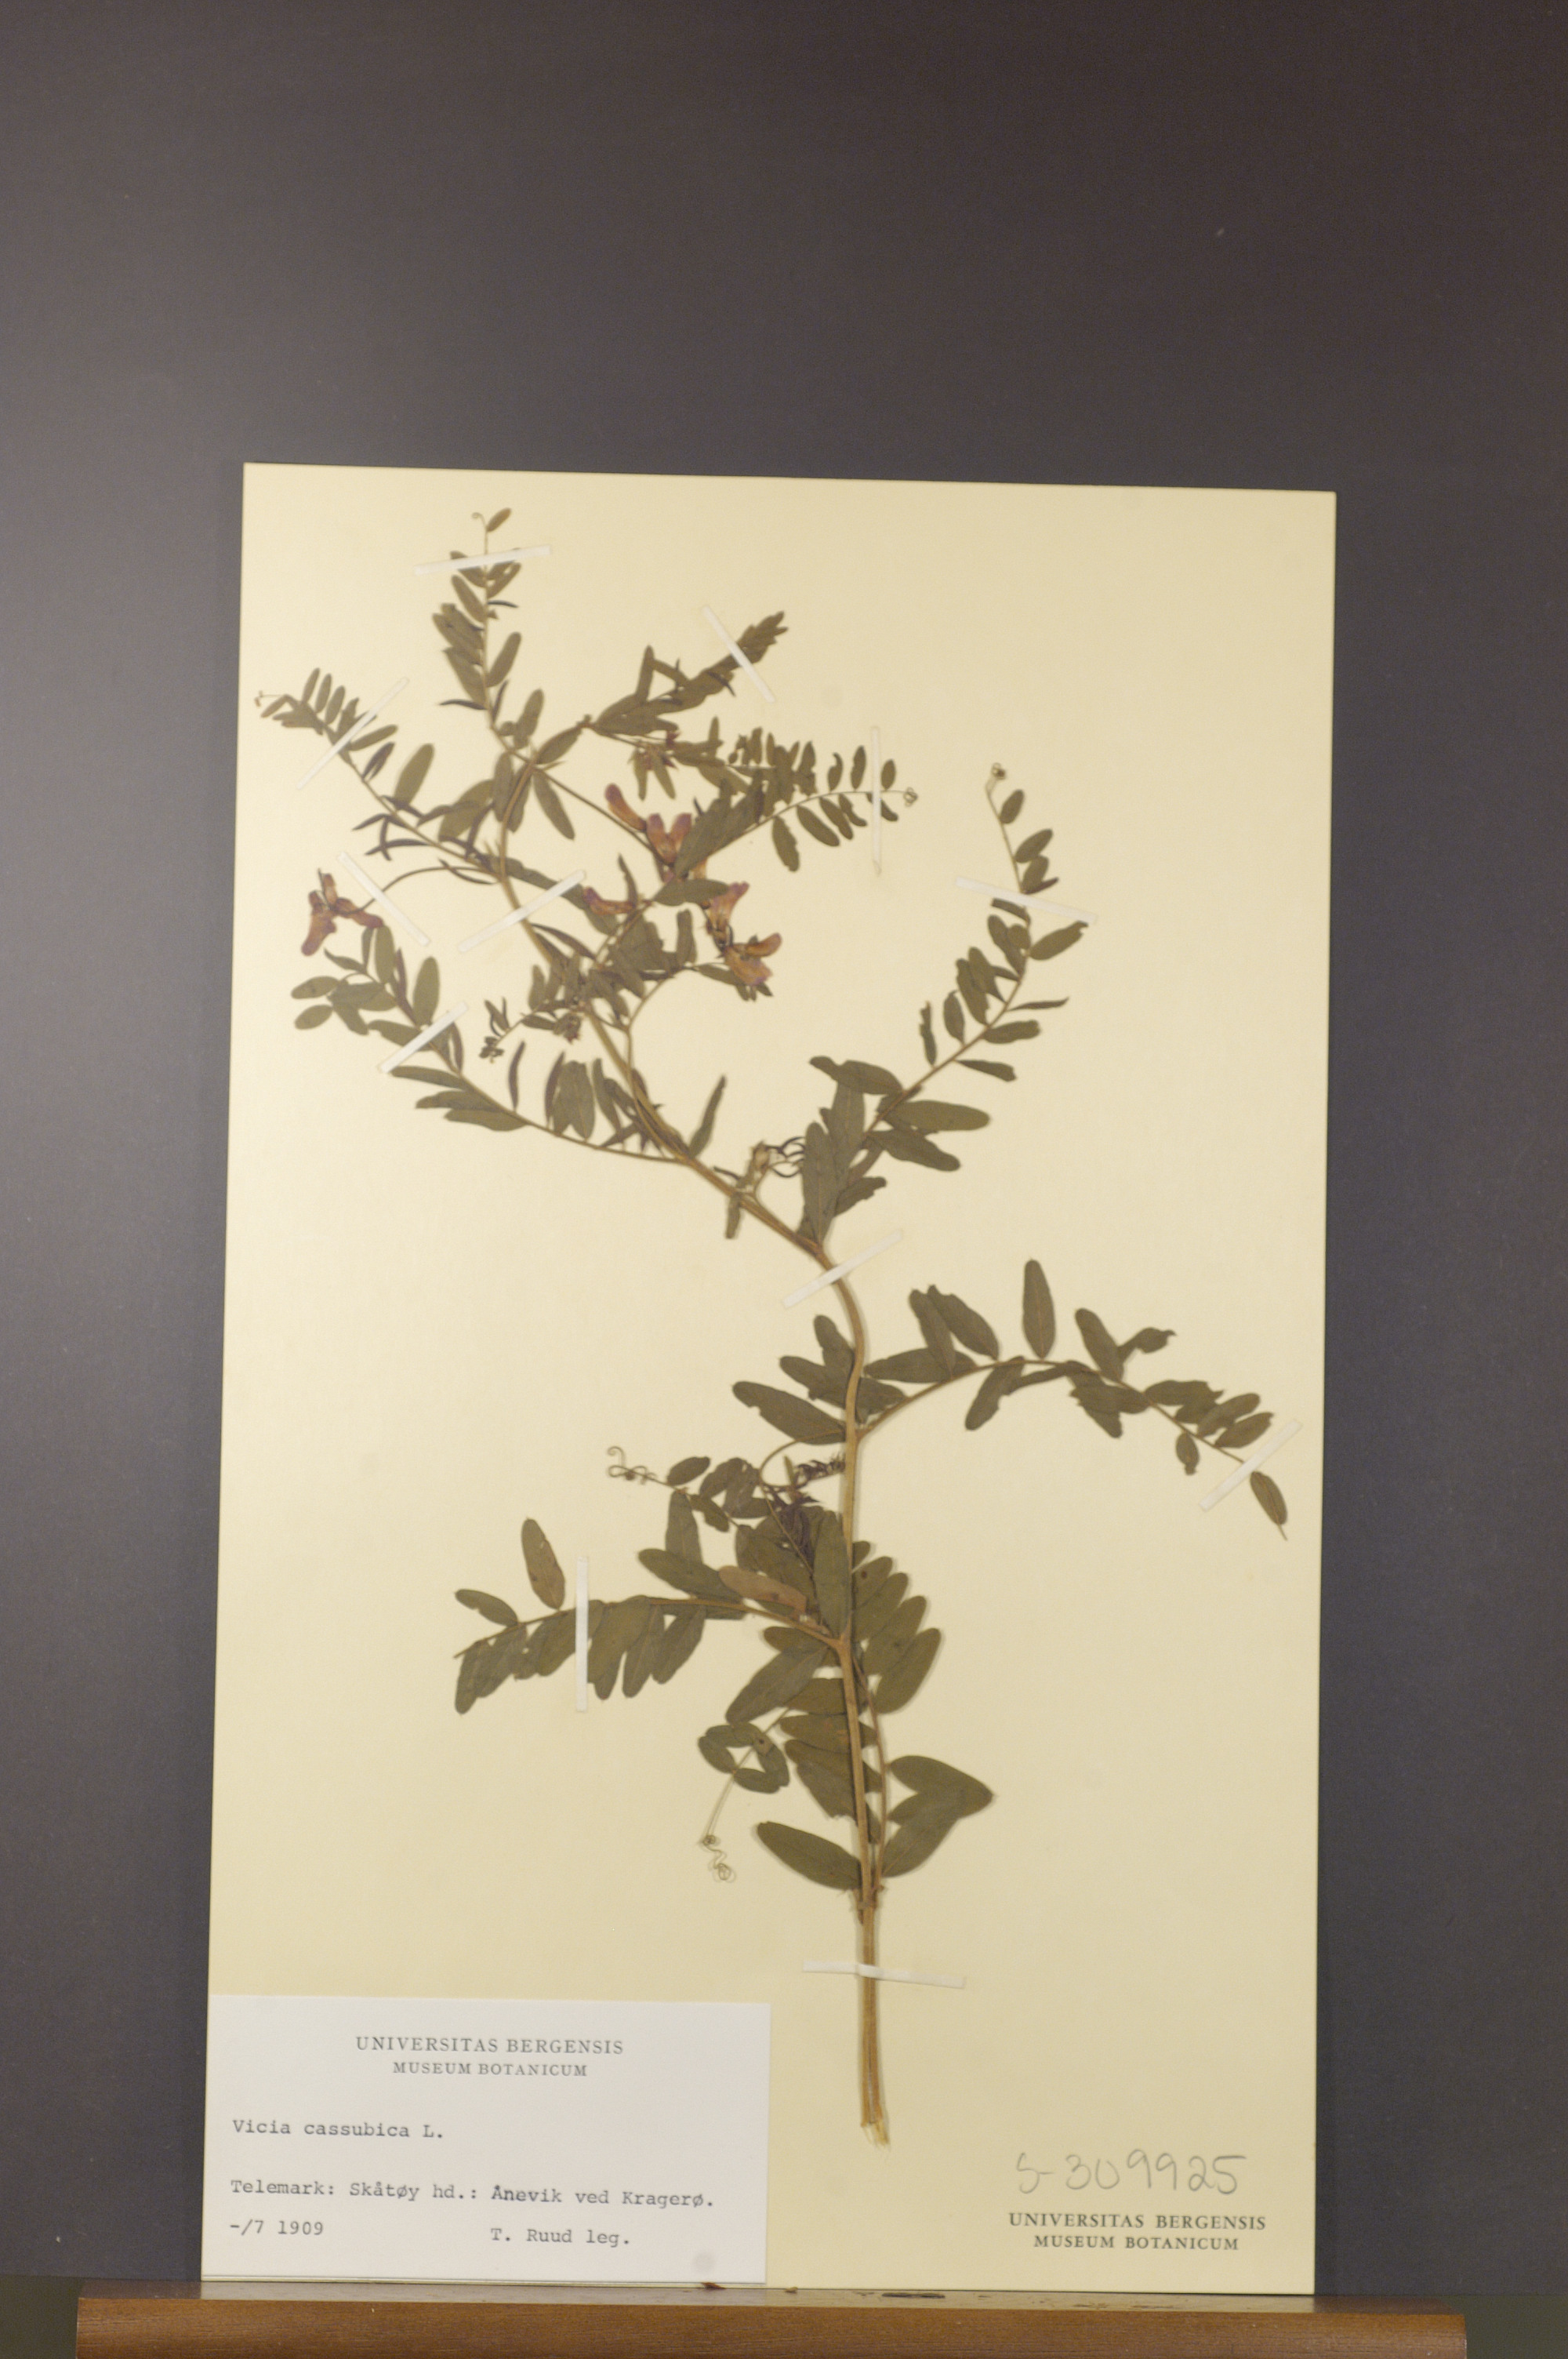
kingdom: Plantae
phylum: Tracheophyta
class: Magnoliopsida
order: Fabales
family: Fabaceae
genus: Vicia
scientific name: Vicia cassubica
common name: Danzig vetch
